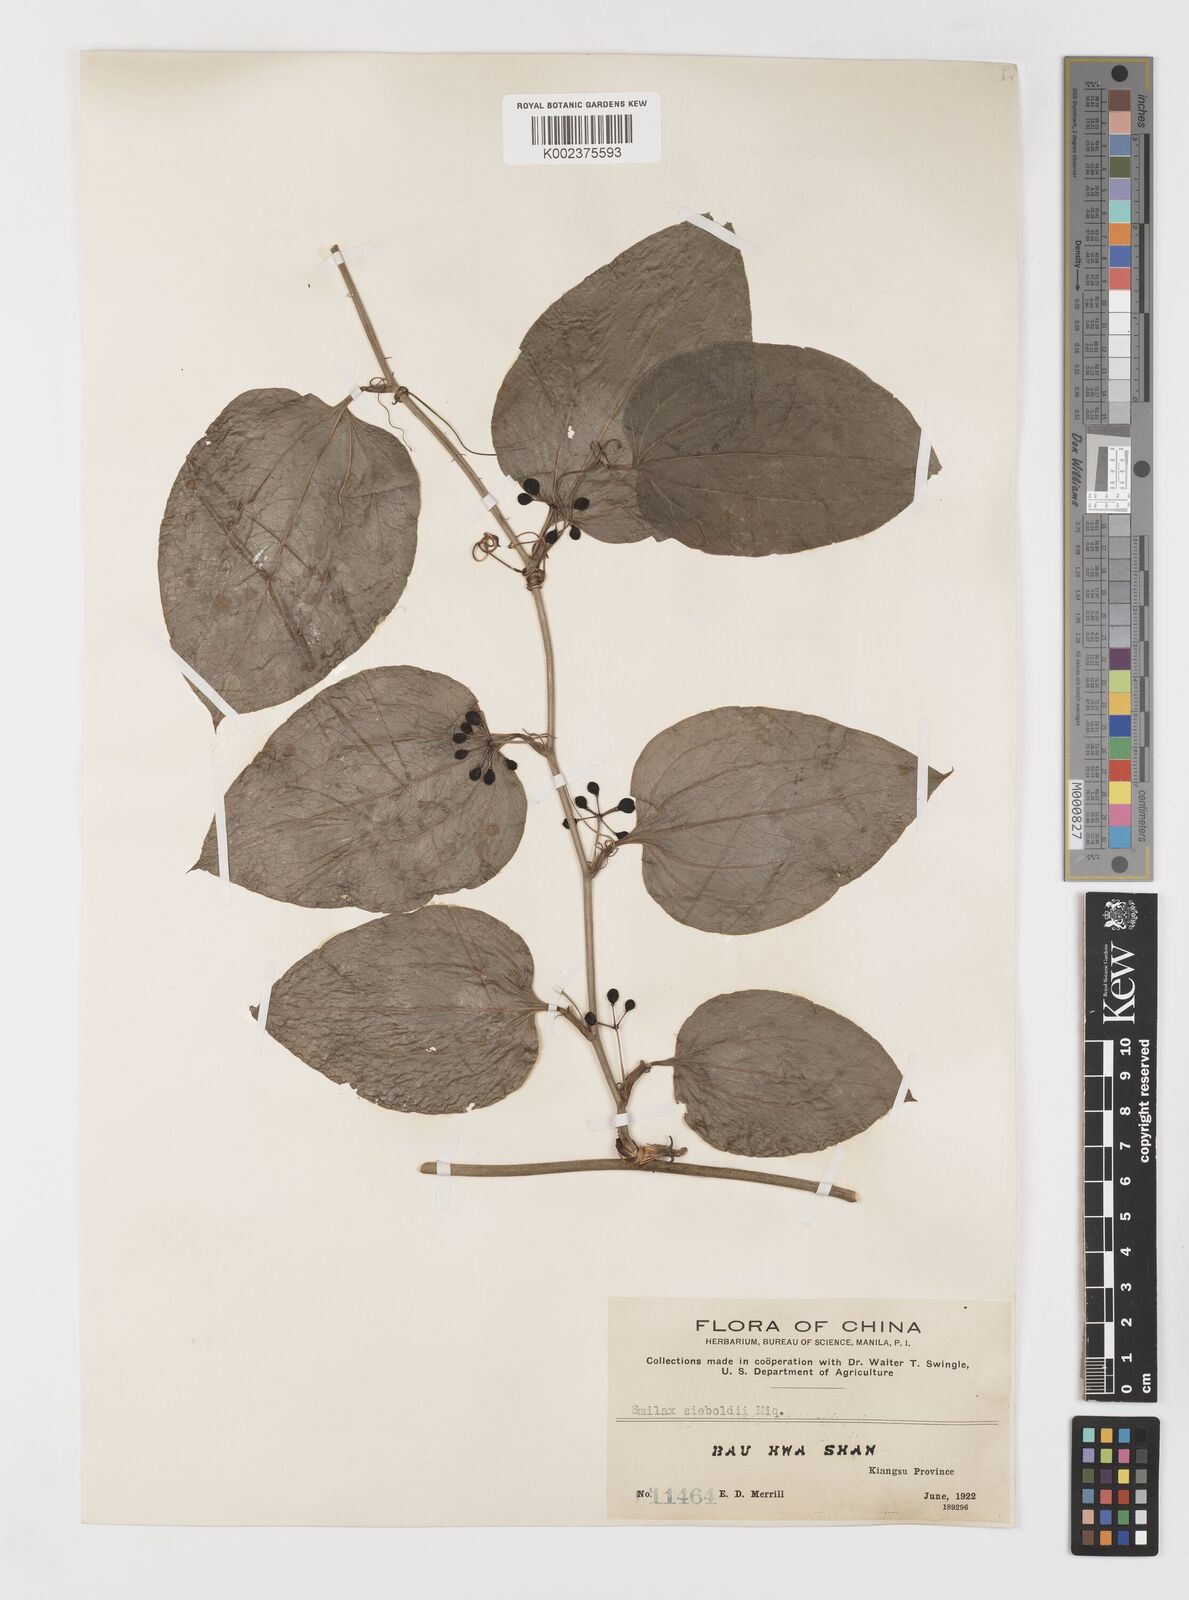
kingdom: Plantae
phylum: Tracheophyta
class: Liliopsida
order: Liliales
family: Smilacaceae
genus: Smilax
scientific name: Smilax sieboldii
